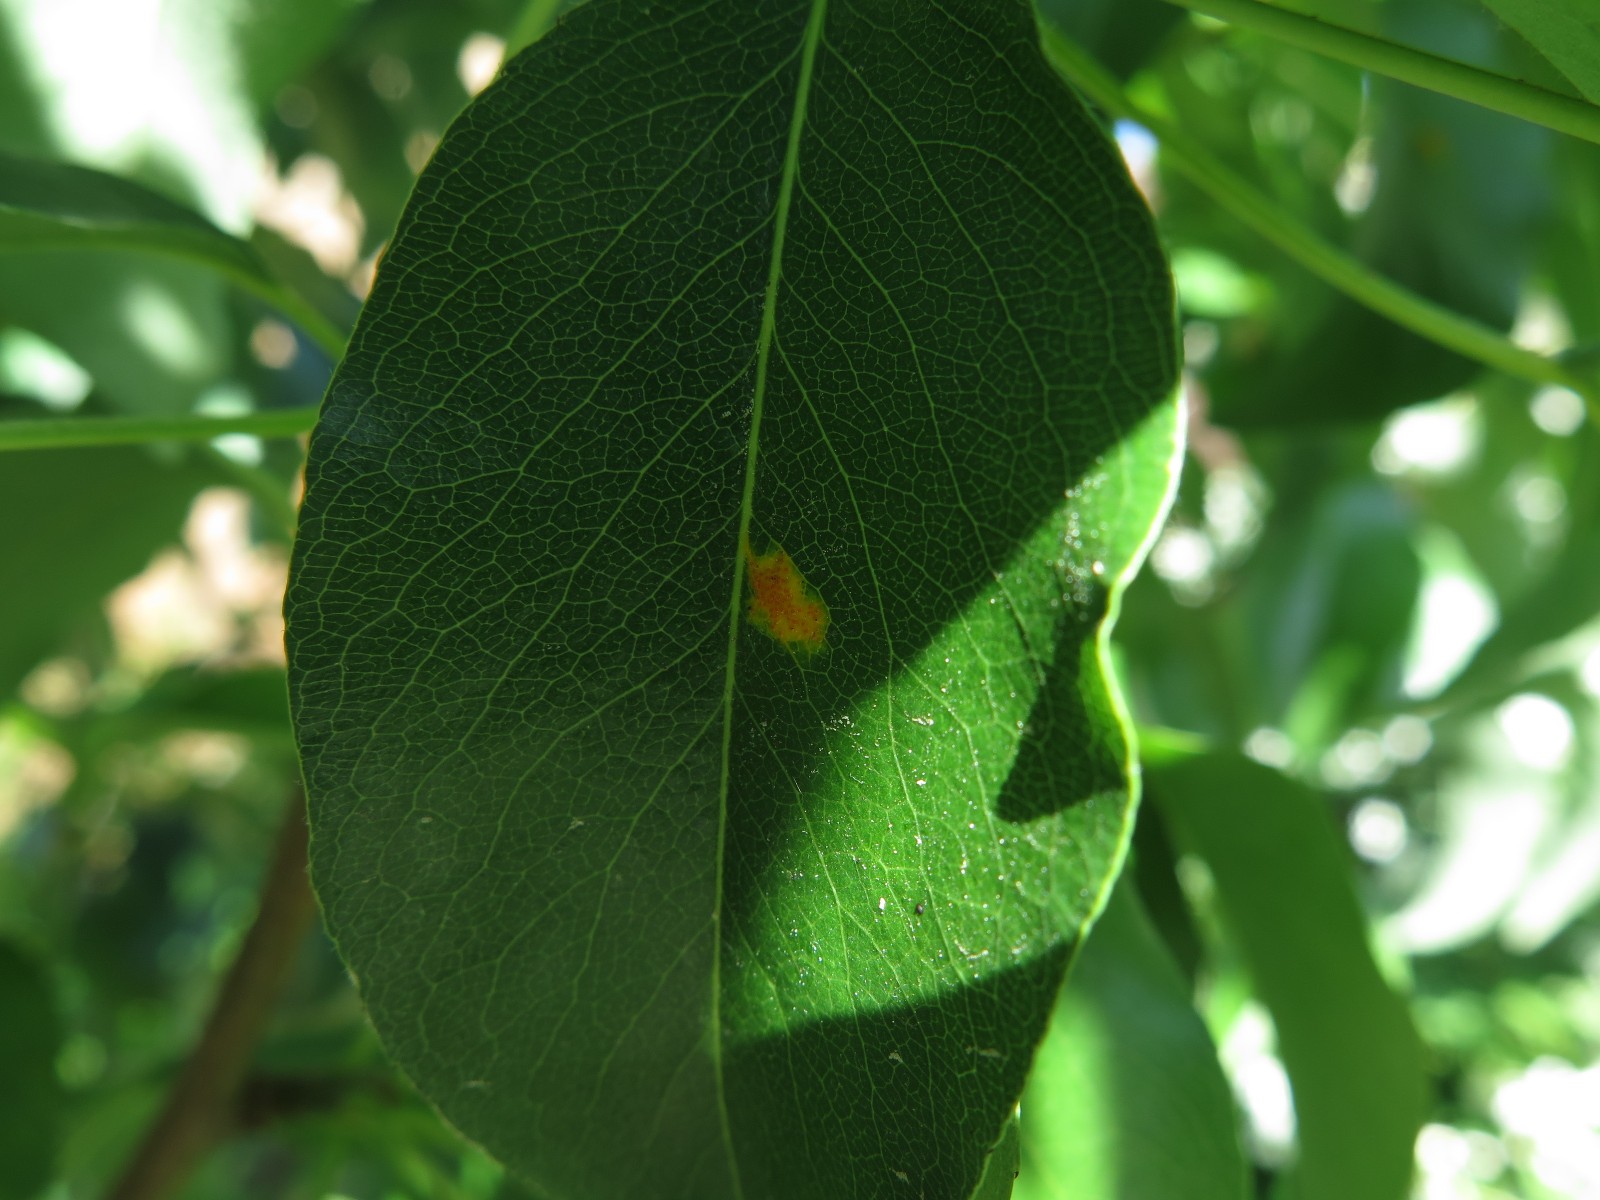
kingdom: Fungi
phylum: Basidiomycota
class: Pucciniomycetes
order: Pucciniales
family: Gymnosporangiaceae
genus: Gymnosporangium
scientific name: Gymnosporangium sabinae
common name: pæregitter-bævrerust
